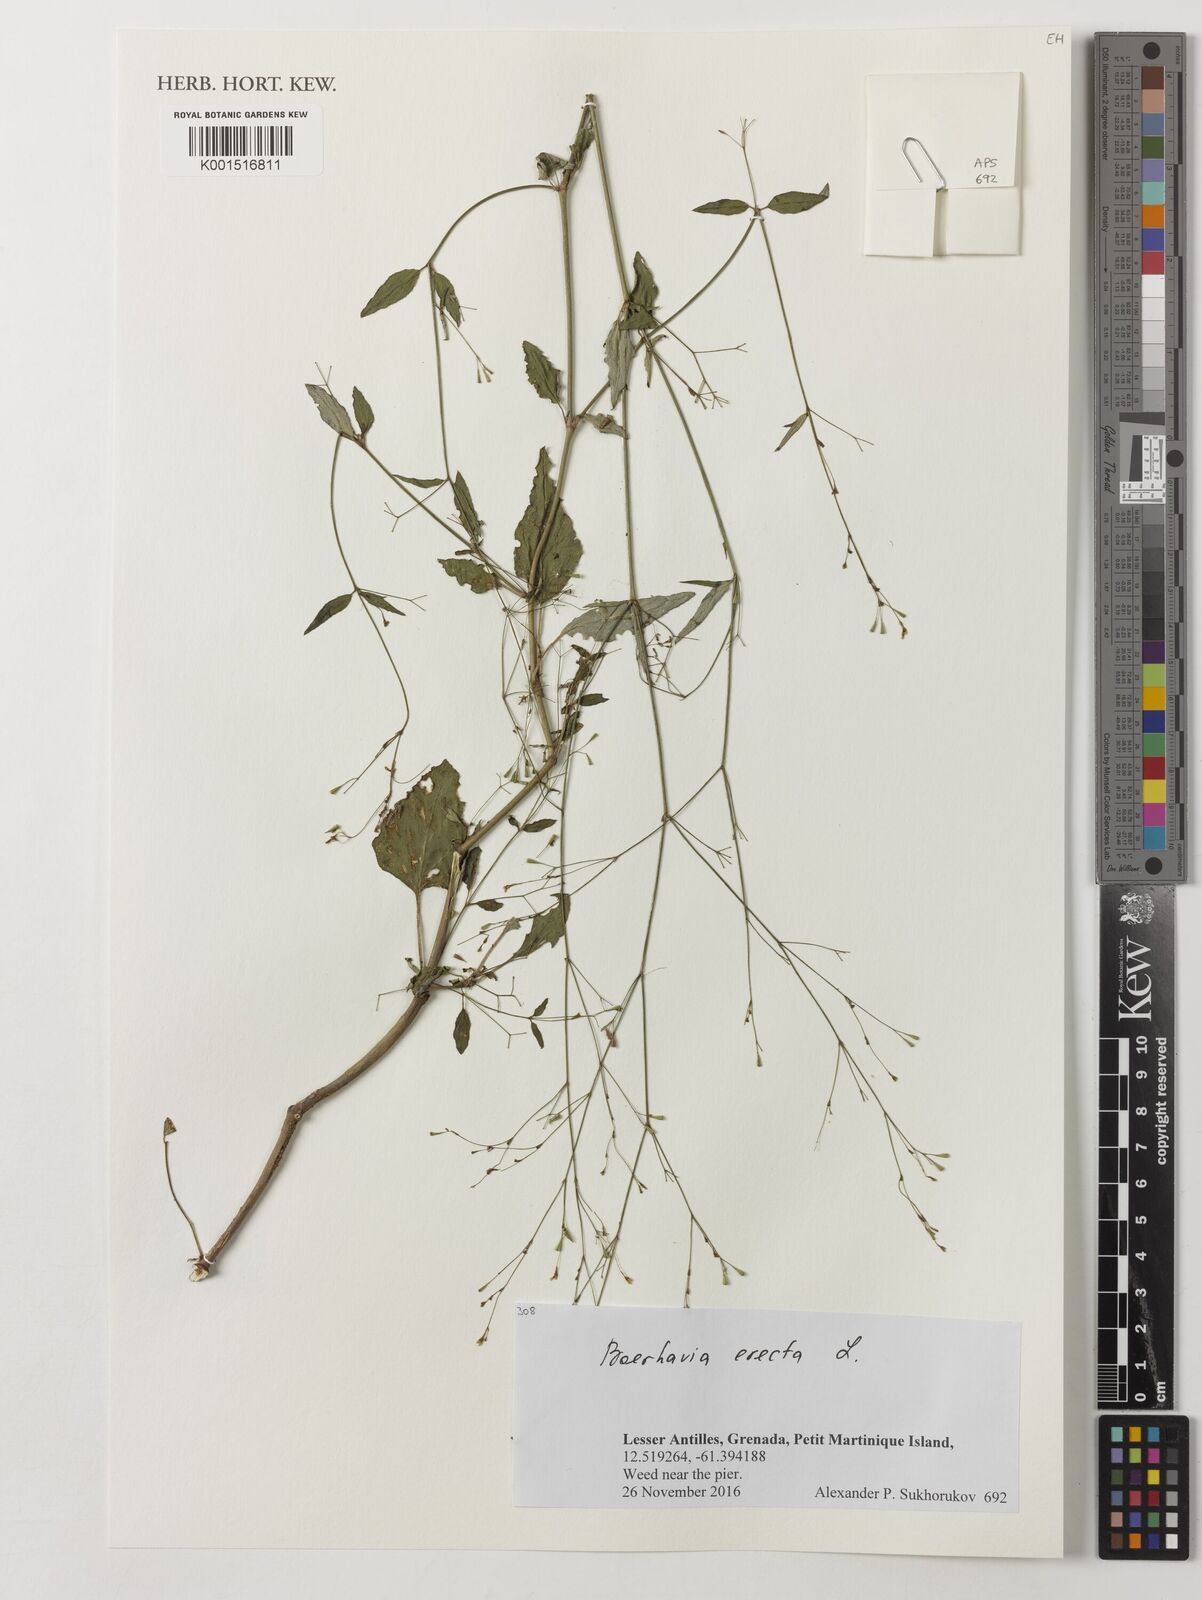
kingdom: Plantae
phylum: Tracheophyta
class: Magnoliopsida
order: Caryophyllales
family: Nyctaginaceae
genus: Boerhavia
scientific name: Boerhavia erecta
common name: Erect spiderling
